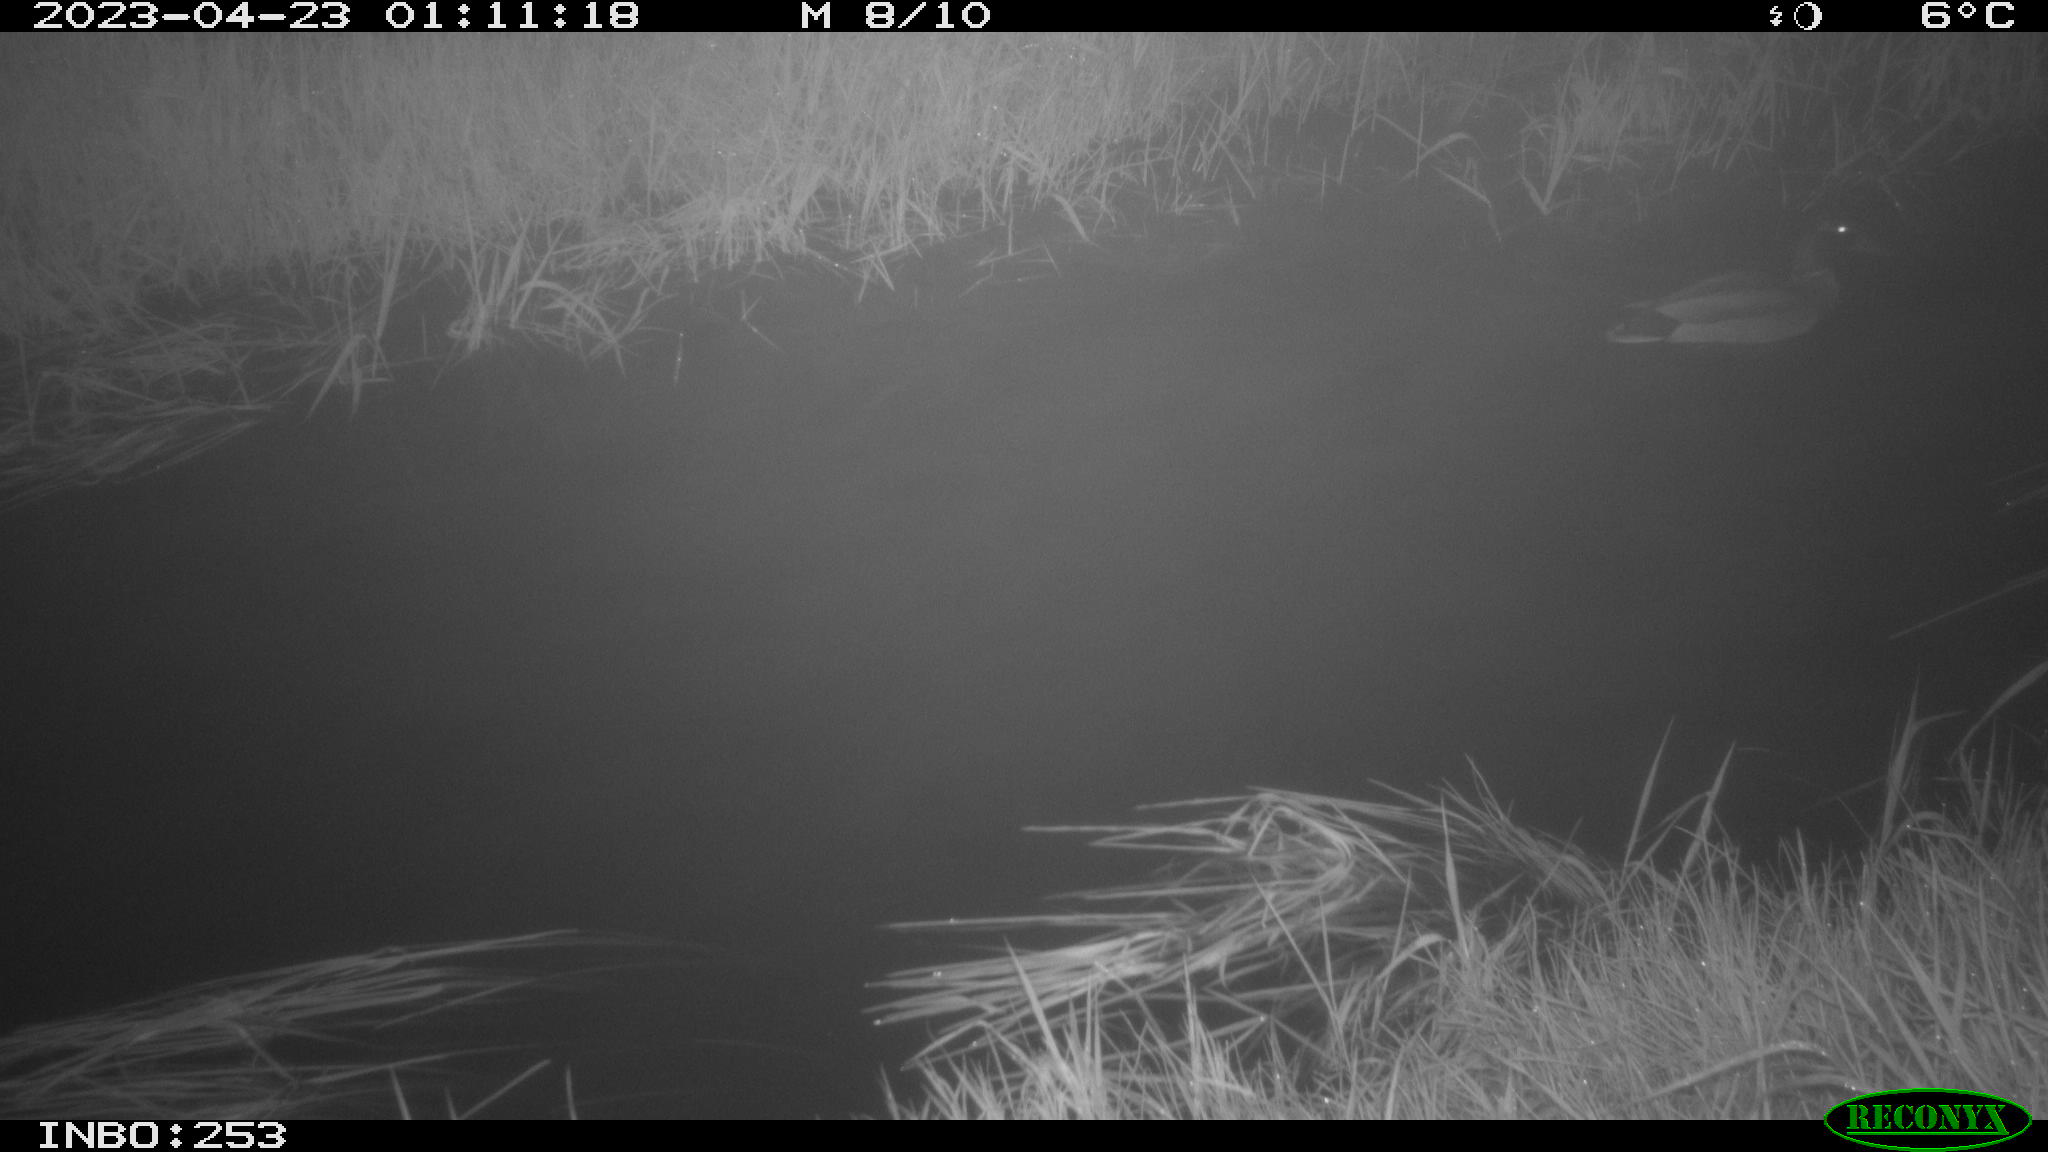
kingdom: Animalia
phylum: Chordata
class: Aves
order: Anseriformes
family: Anatidae
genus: Anas
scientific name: Anas
